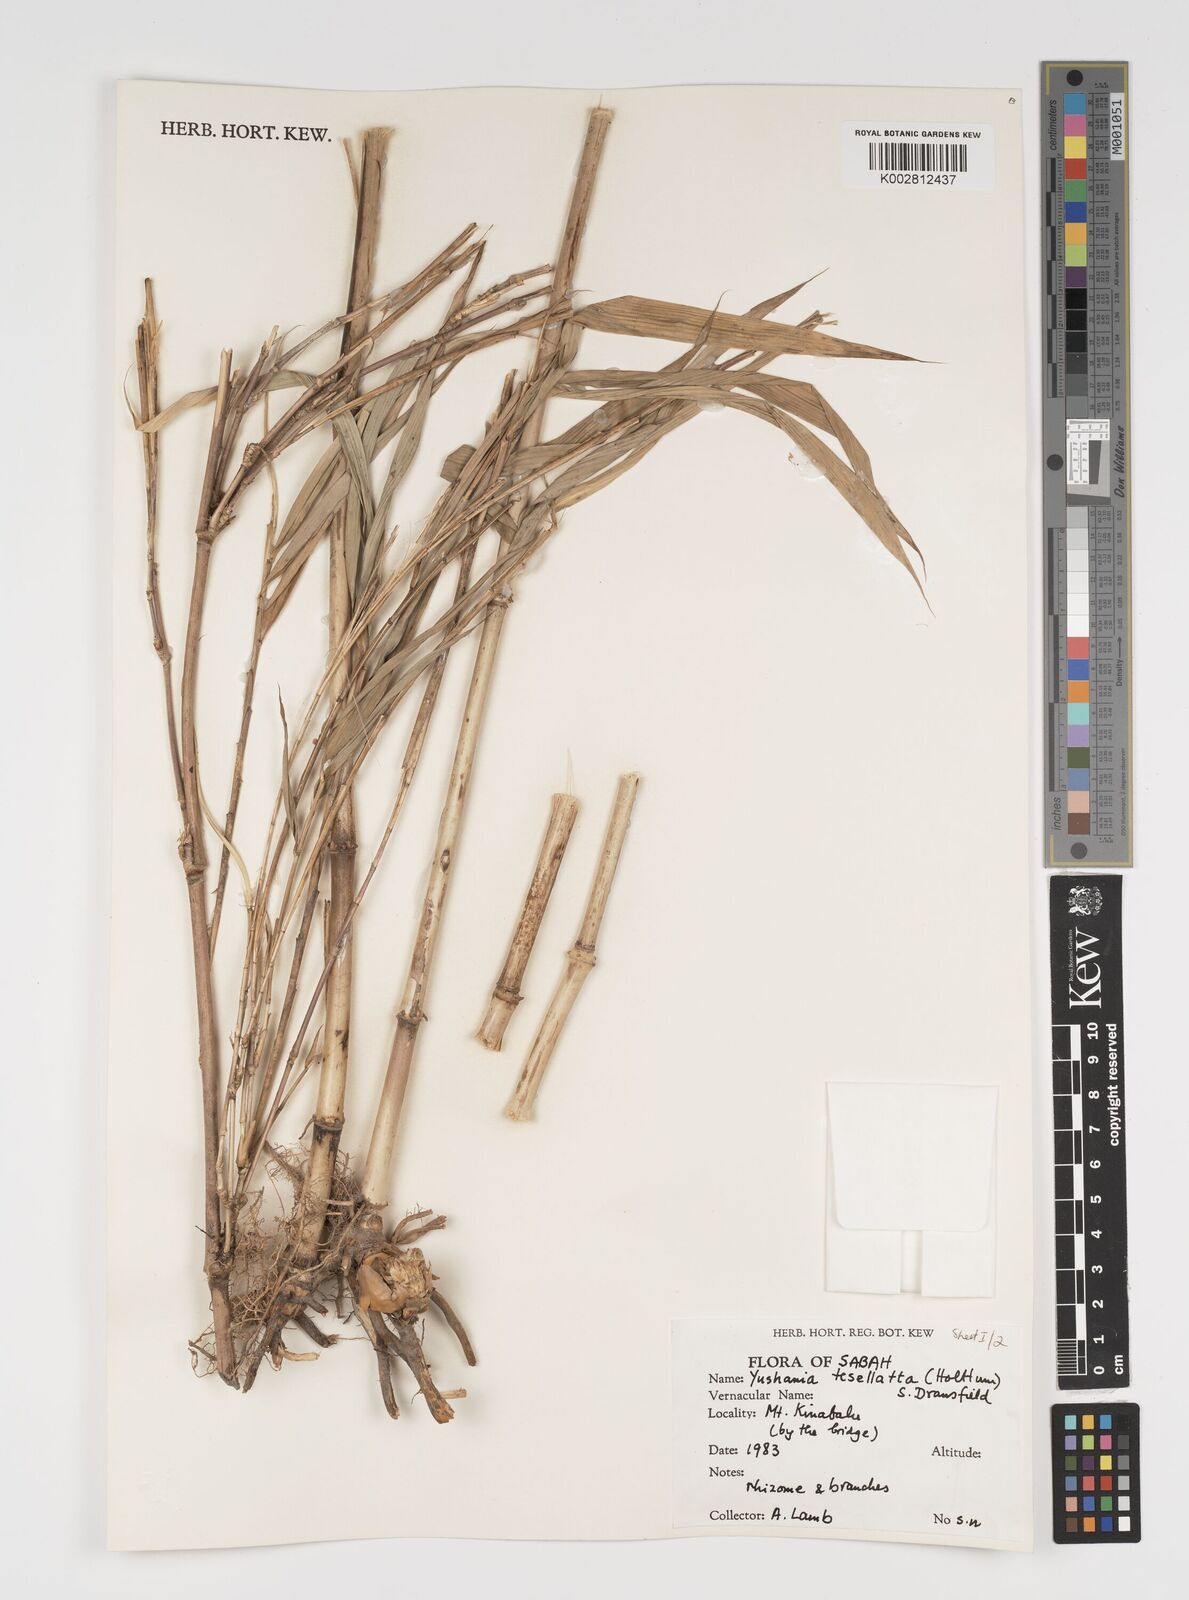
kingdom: Plantae
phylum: Tracheophyta
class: Liliopsida
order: Poales
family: Poaceae
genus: Yushania
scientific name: Yushania tessellata
